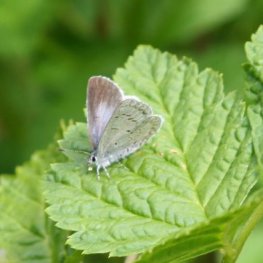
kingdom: Animalia
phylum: Arthropoda
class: Insecta
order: Lepidoptera
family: Lycaenidae
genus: Celastrina
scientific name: Celastrina ladon
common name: Echo Azure
